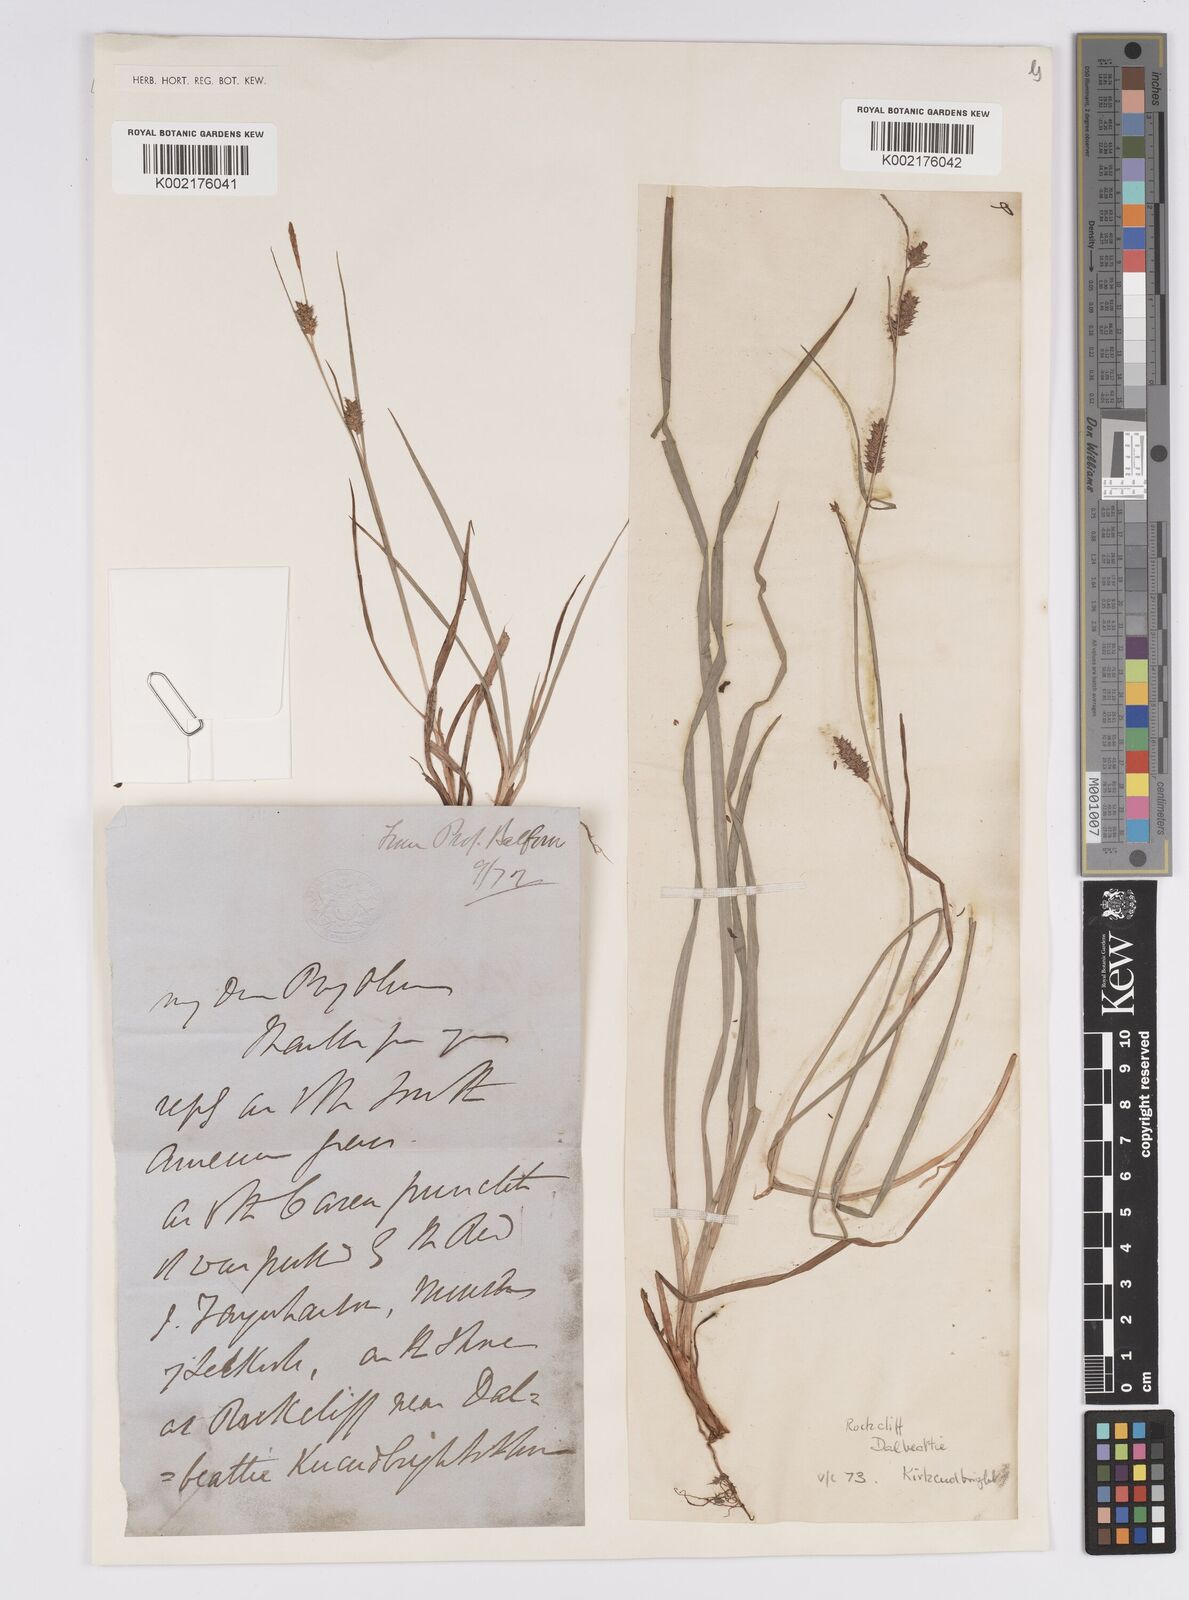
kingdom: Plantae
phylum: Tracheophyta
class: Liliopsida
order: Poales
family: Cyperaceae
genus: Carex
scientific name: Carex punctata
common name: Dotted sedge
